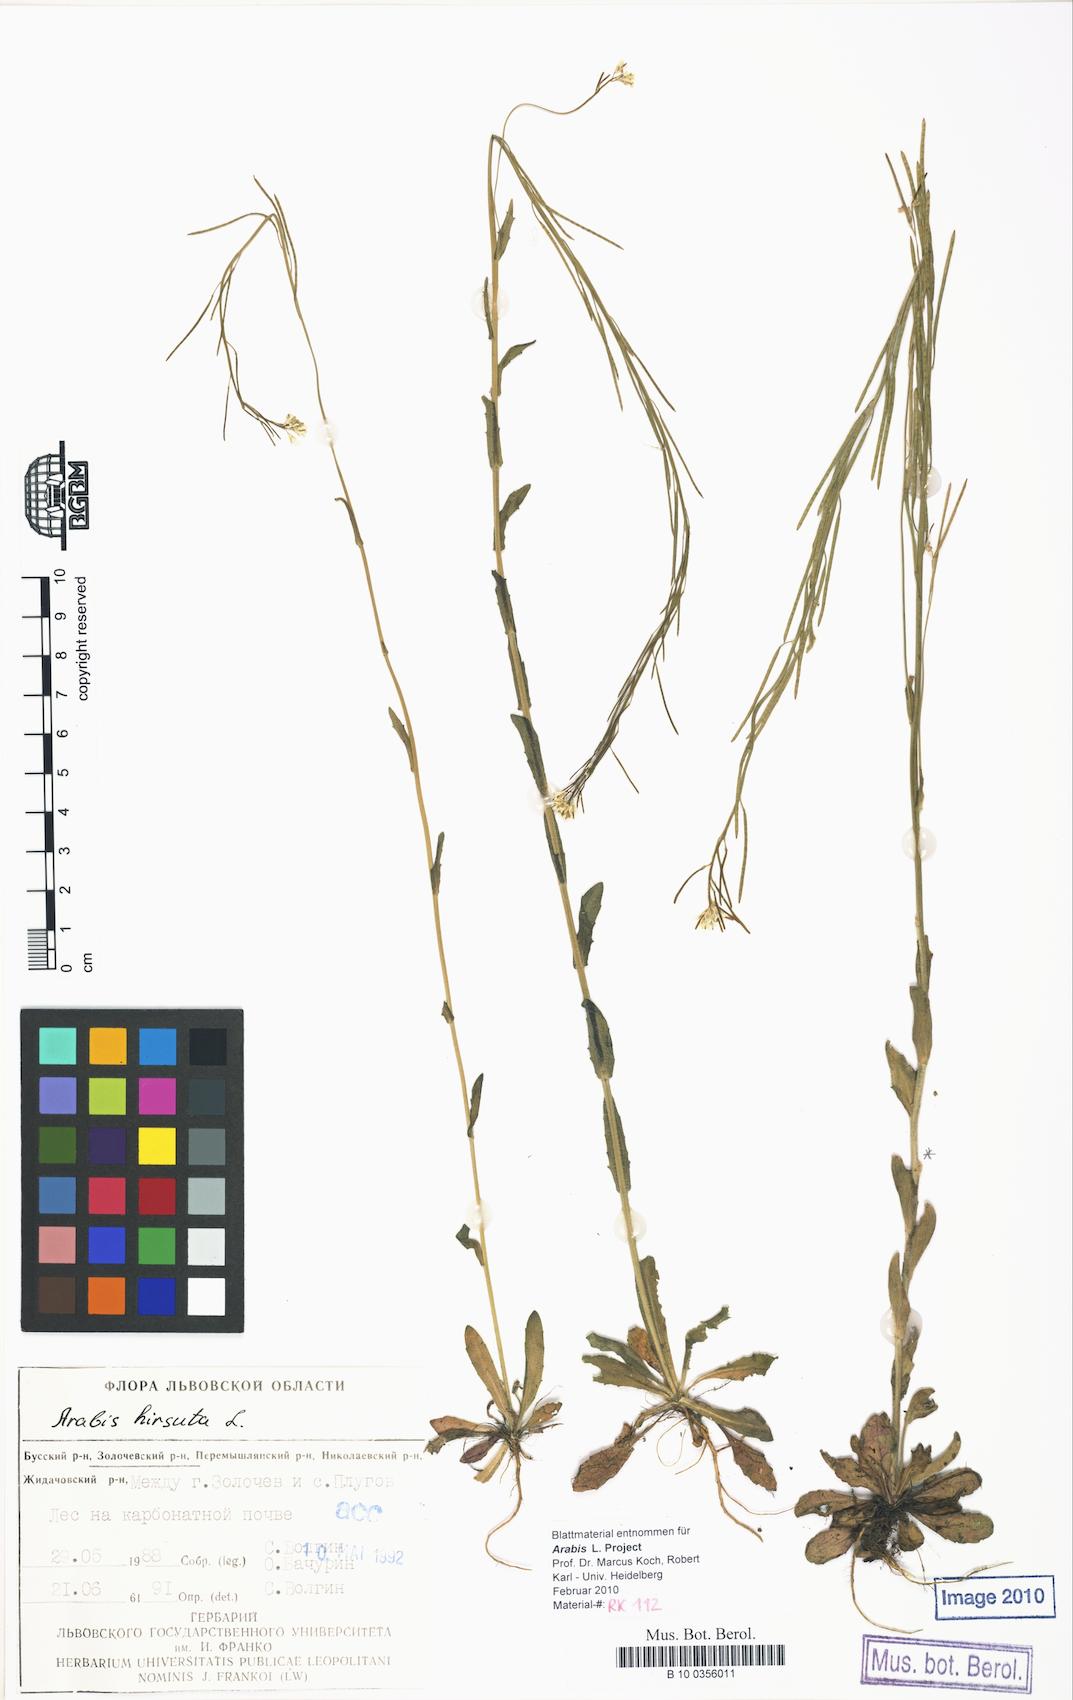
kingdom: Plantae
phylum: Tracheophyta
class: Magnoliopsida
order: Brassicales
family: Brassicaceae
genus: Arabis
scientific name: Arabis hirsuta
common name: Hairy rock-cress
